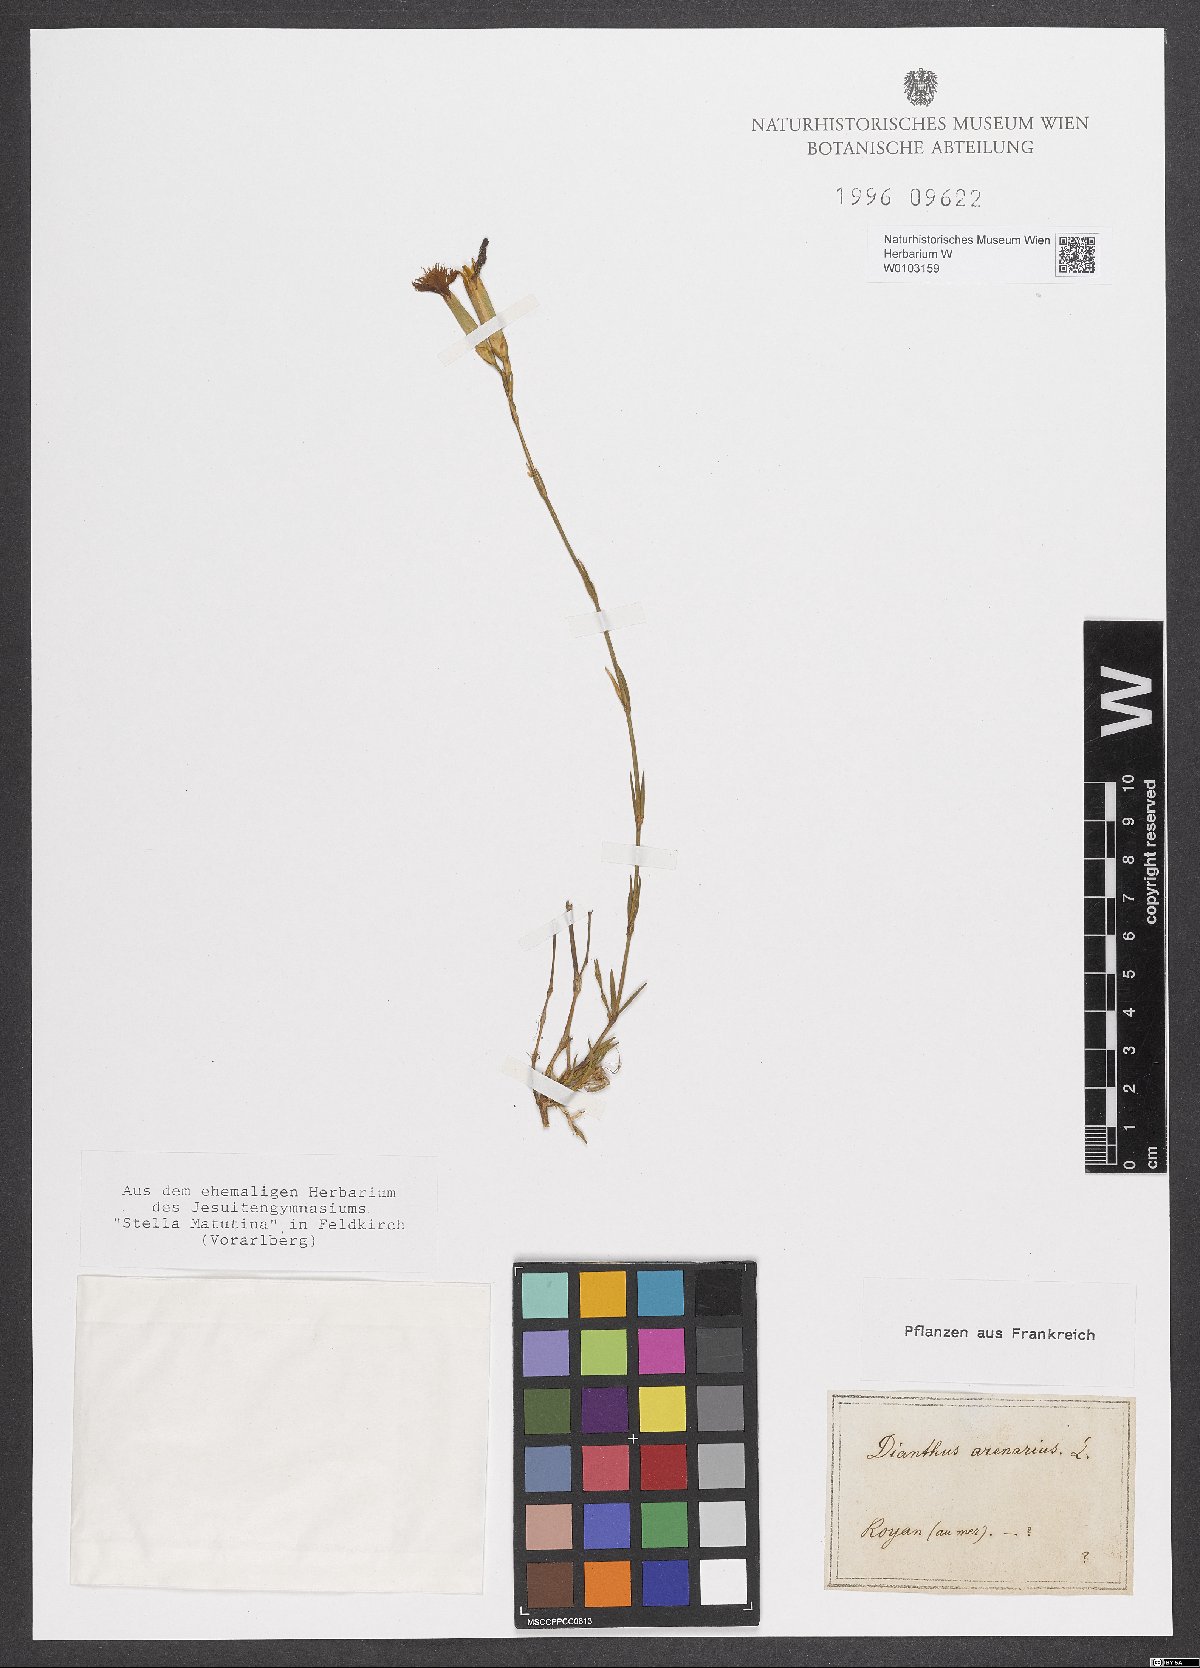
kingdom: Plantae
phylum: Tracheophyta
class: Magnoliopsida
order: Caryophyllales
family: Caryophyllaceae
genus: Dianthus
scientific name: Dianthus arenarius
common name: Stone pink
